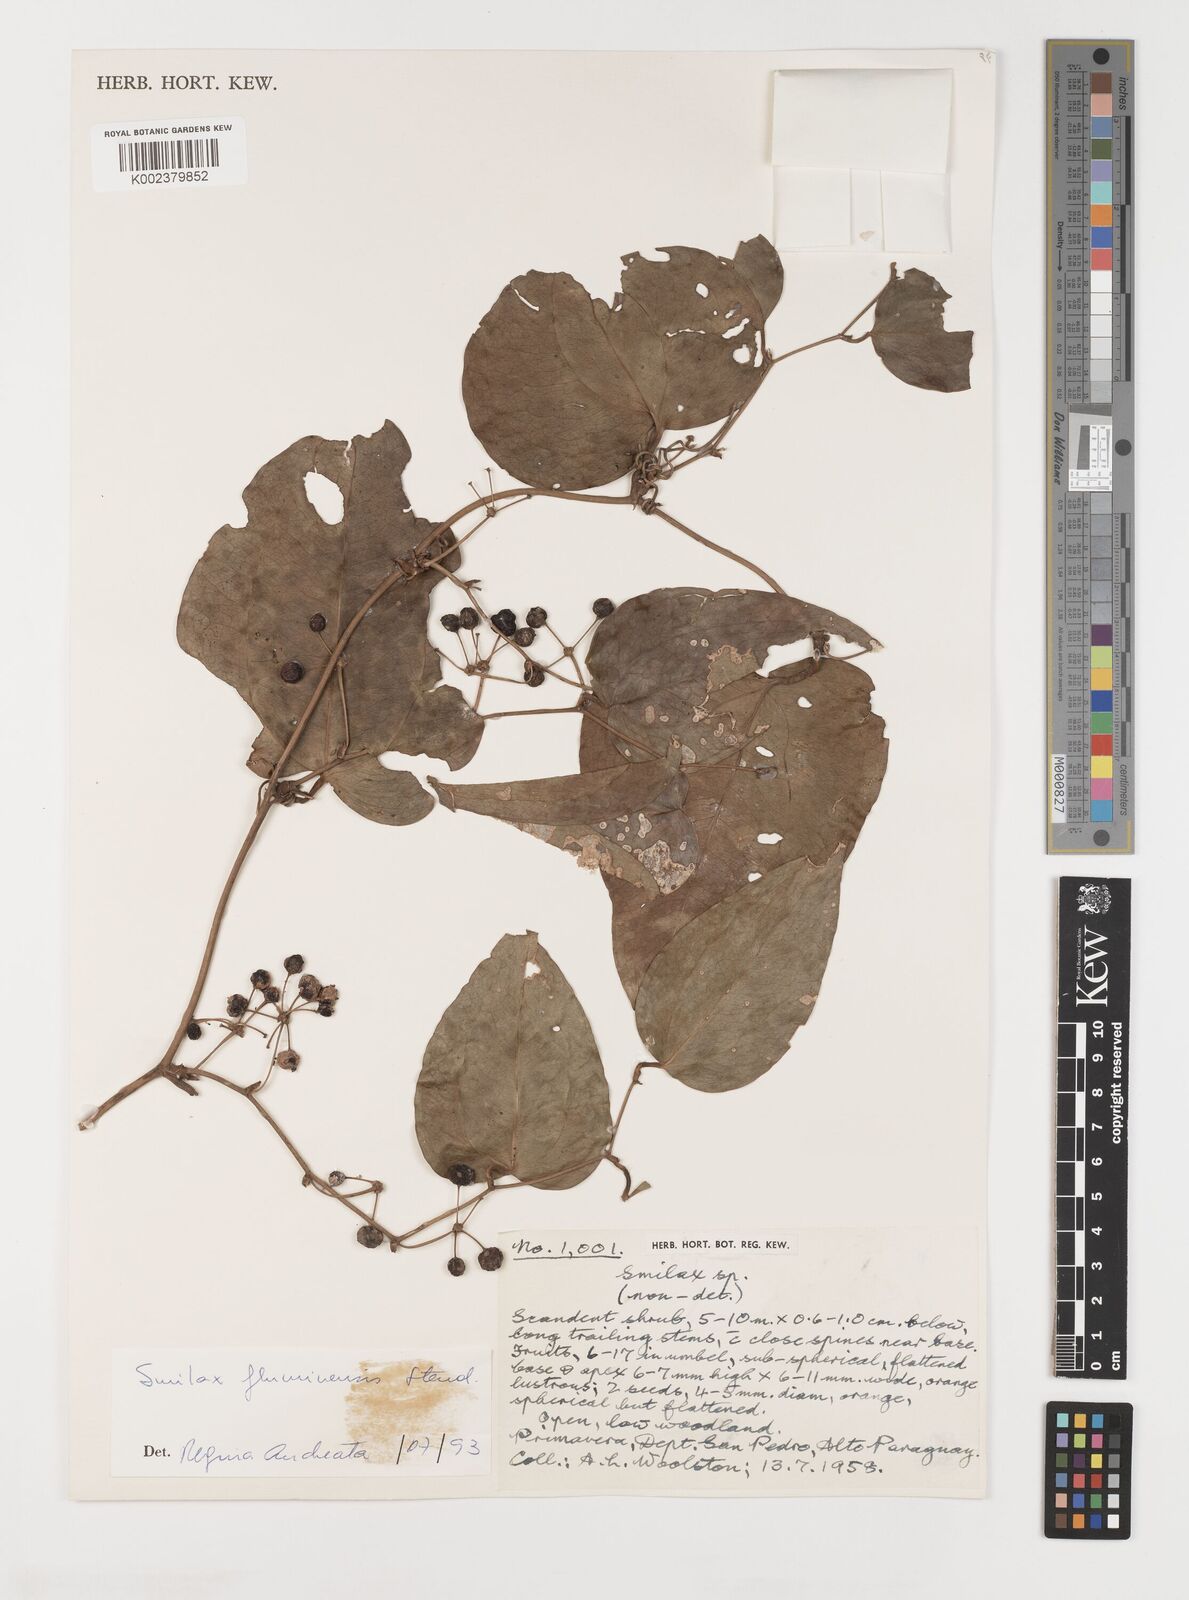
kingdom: Plantae
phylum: Tracheophyta
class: Liliopsida
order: Liliales
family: Smilacaceae
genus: Smilax
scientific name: Smilax fluminensis
